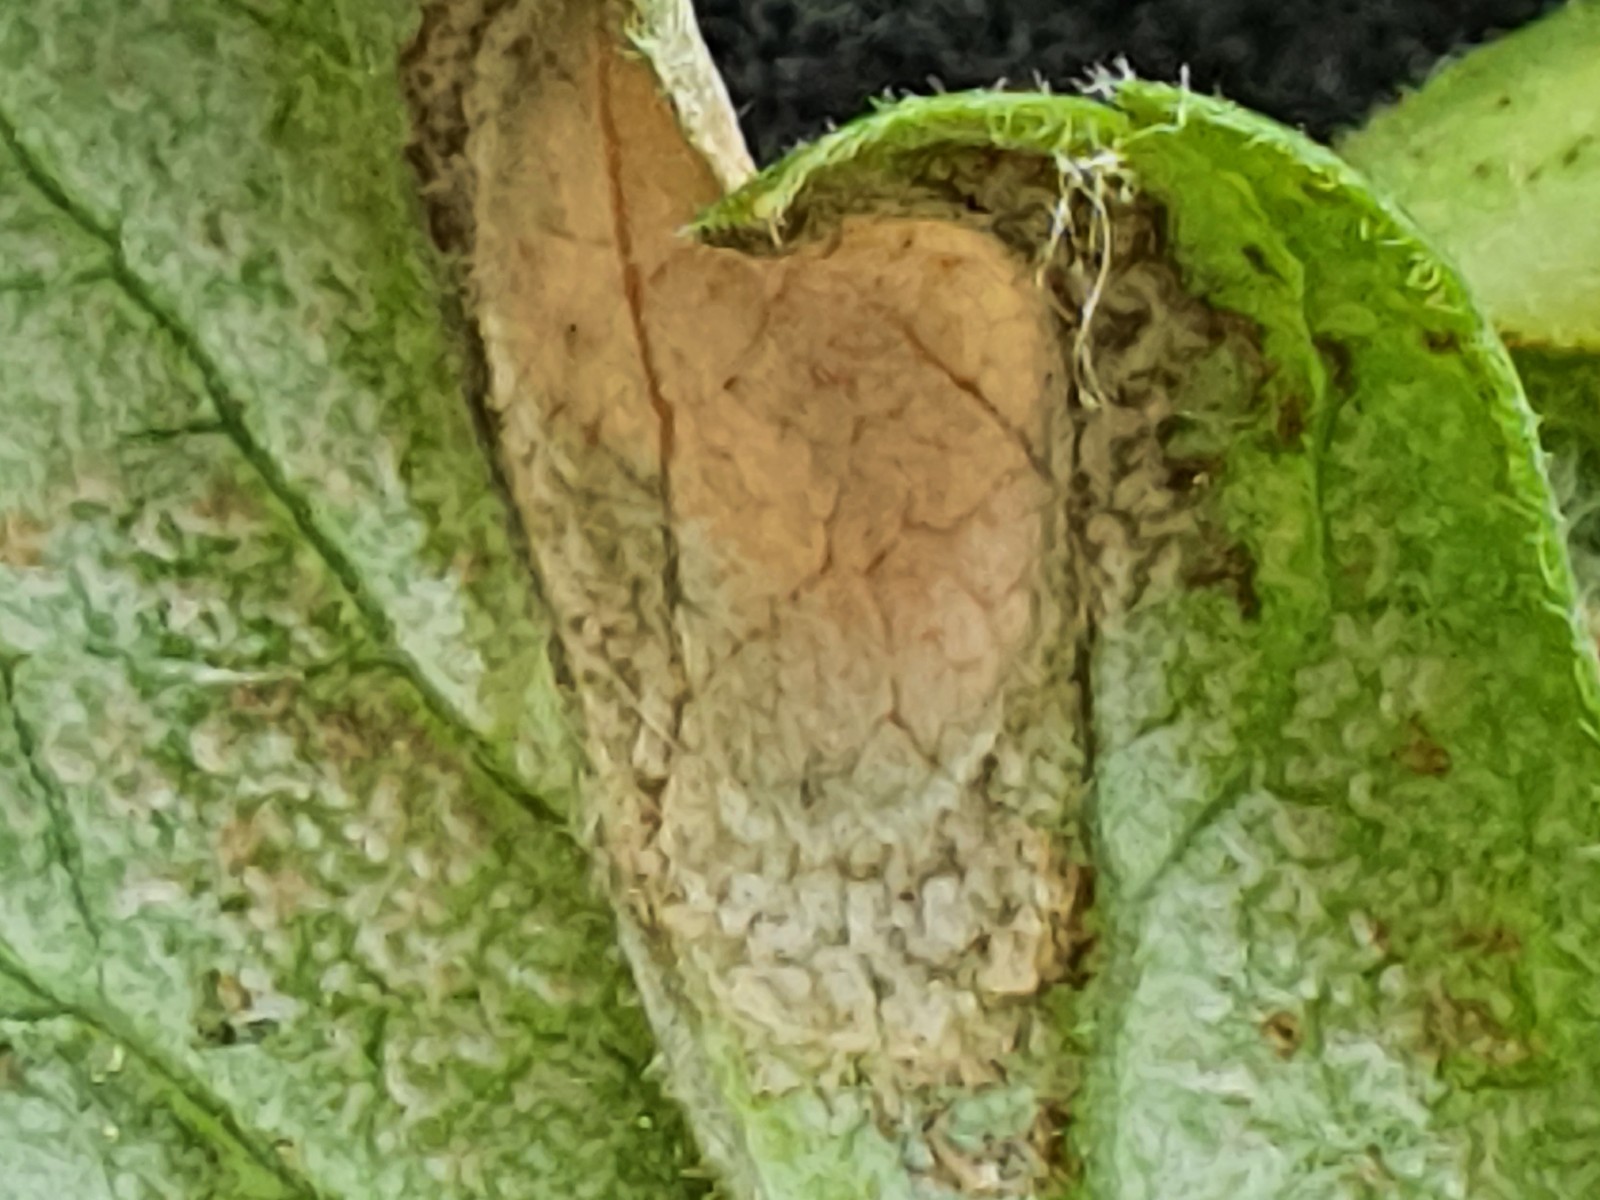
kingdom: Fungi
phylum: Ascomycota
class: Leotiomycetes
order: Helotiales
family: Erysiphaceae
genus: Podosphaera
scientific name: Podosphaera mors-uvae
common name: American gooseberry mildew
